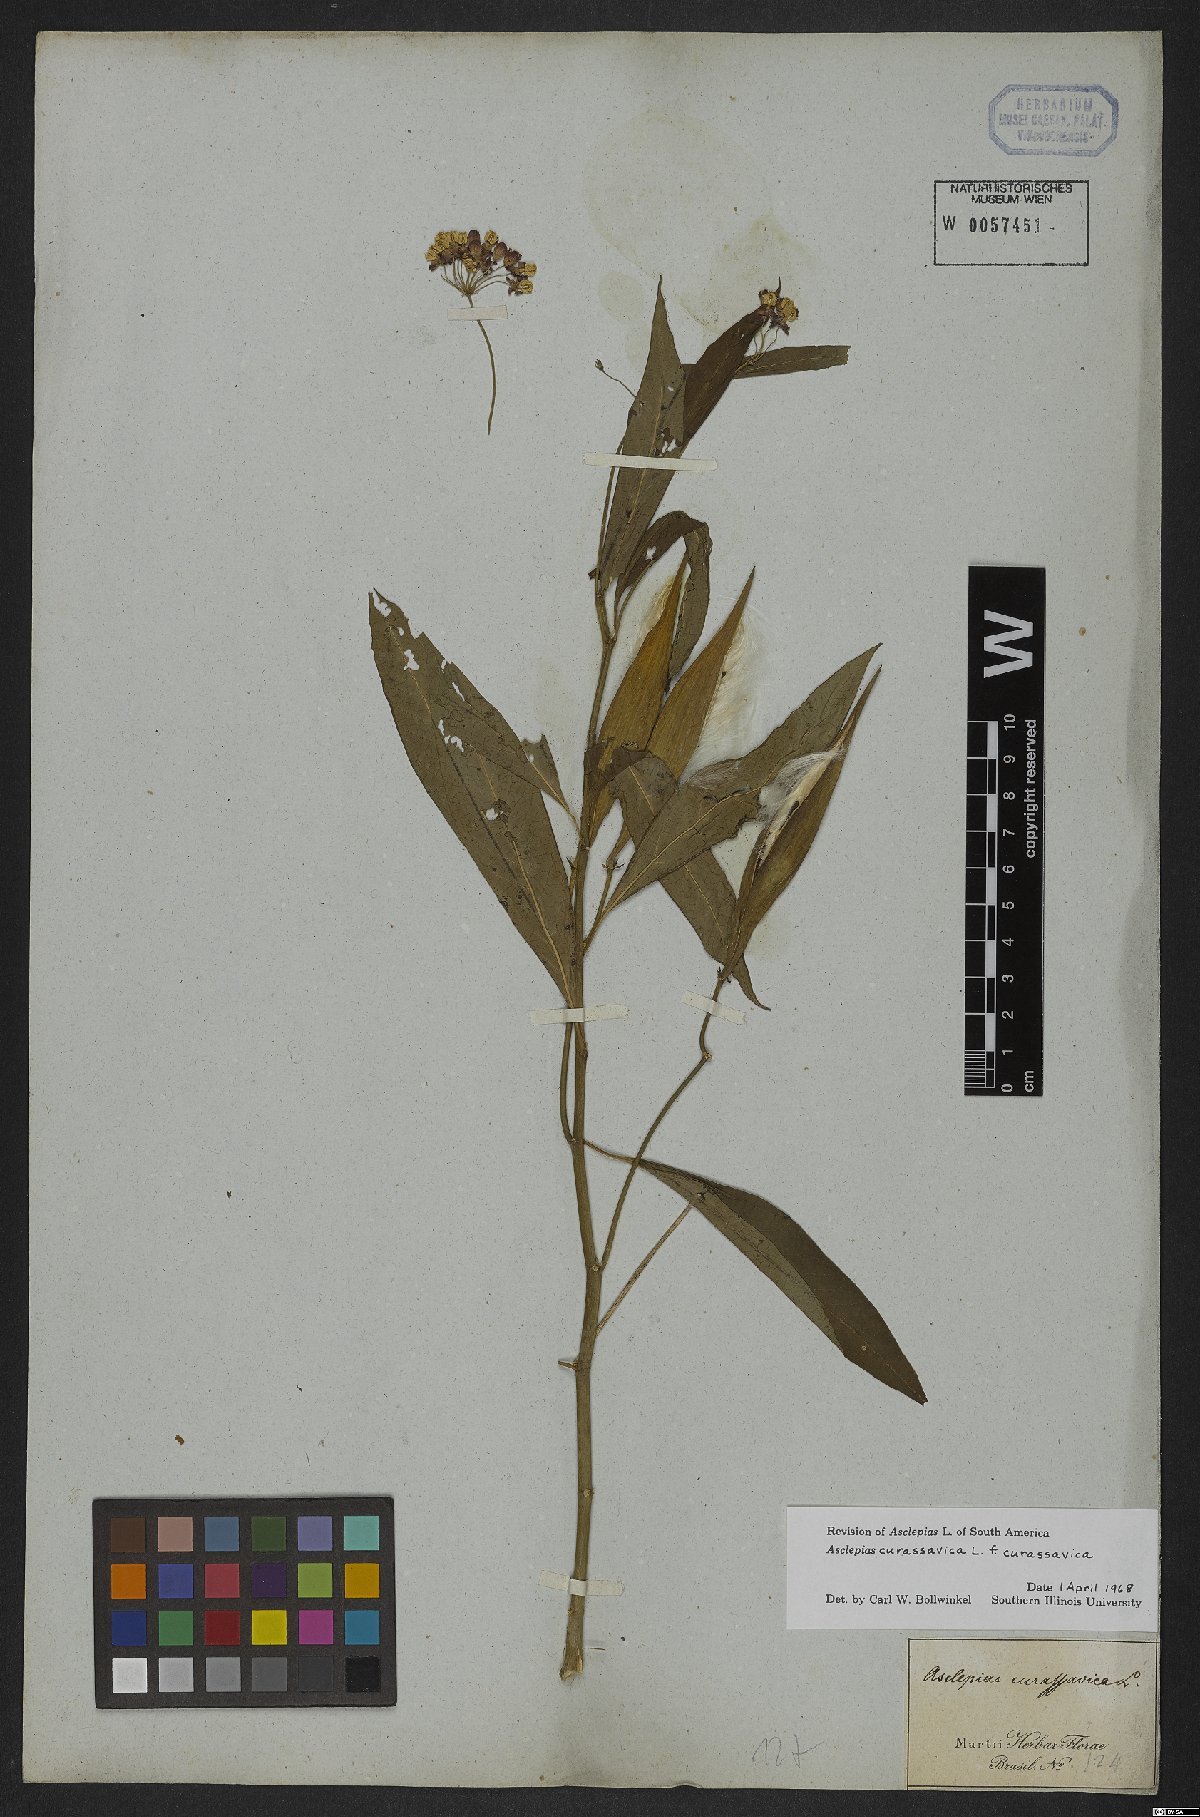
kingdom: Plantae
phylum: Tracheophyta
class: Magnoliopsida
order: Gentianales
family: Apocynaceae
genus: Asclepias
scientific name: Asclepias curassavica
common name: Bloodflower
